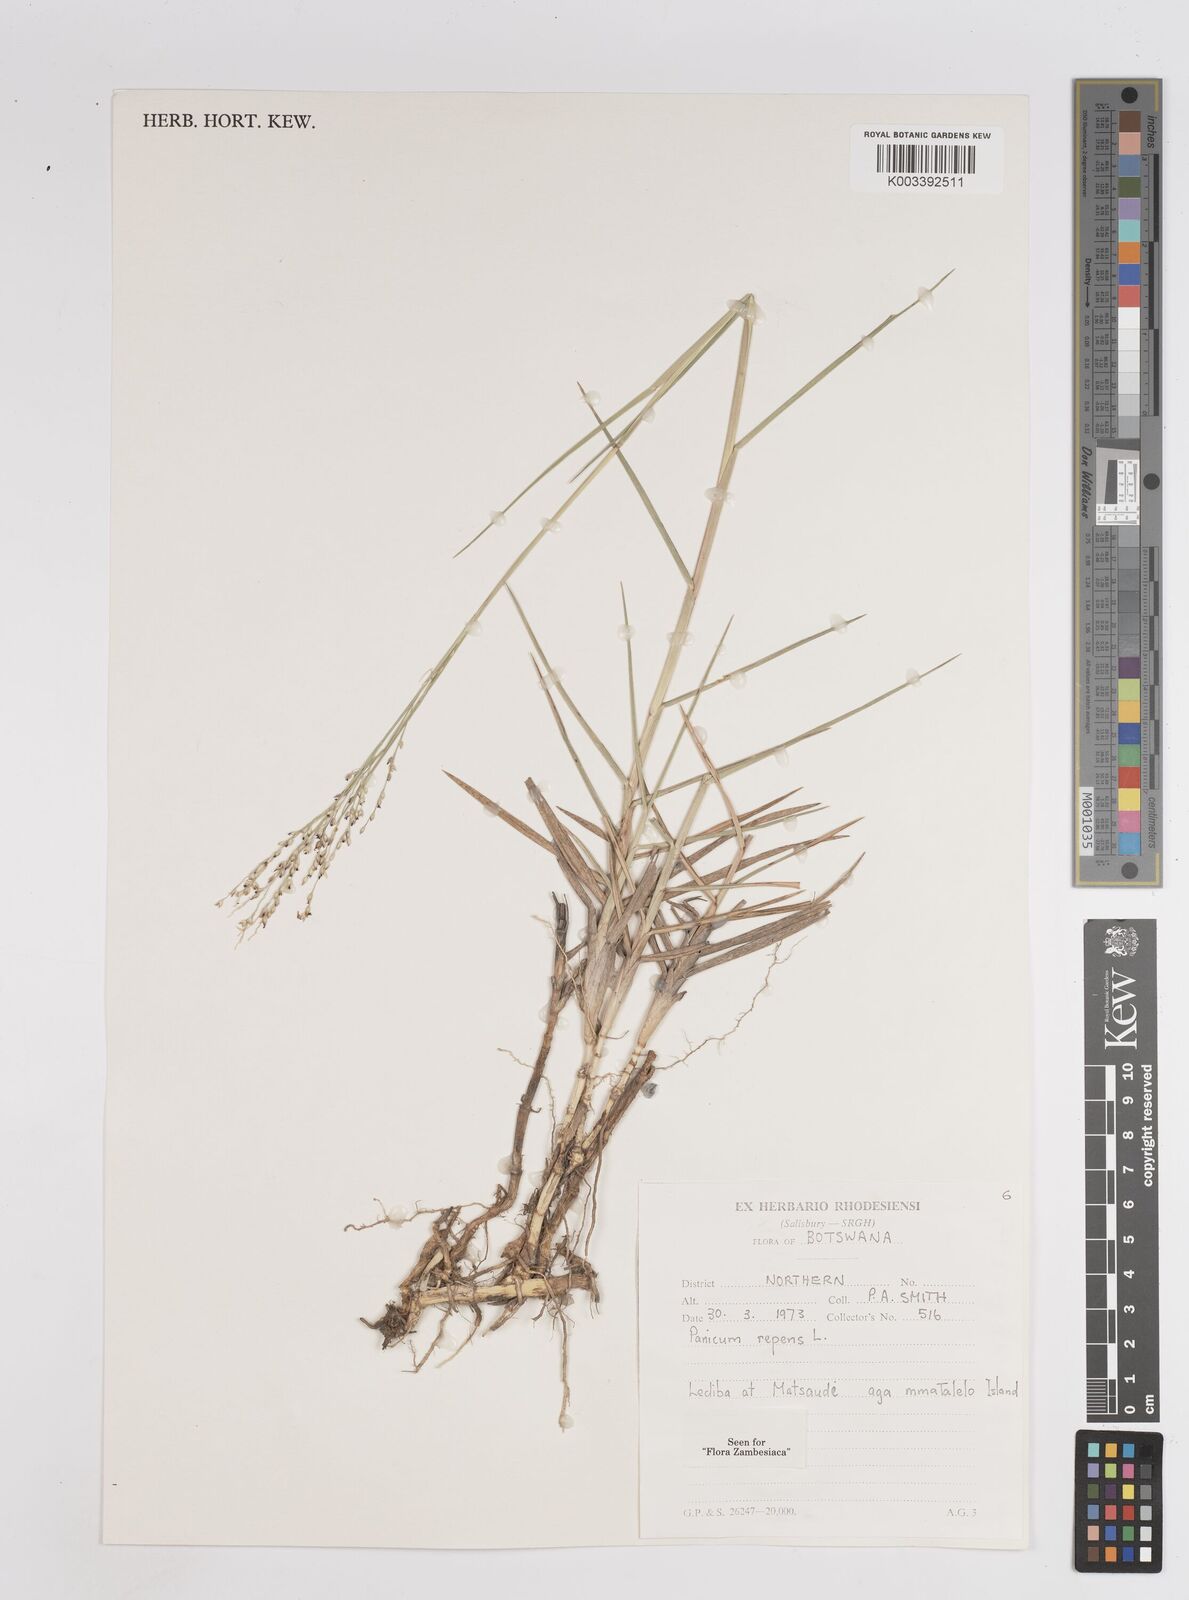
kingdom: Plantae
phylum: Tracheophyta
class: Liliopsida
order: Poales
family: Poaceae
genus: Panicum
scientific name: Panicum repens
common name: Torpedo grass
